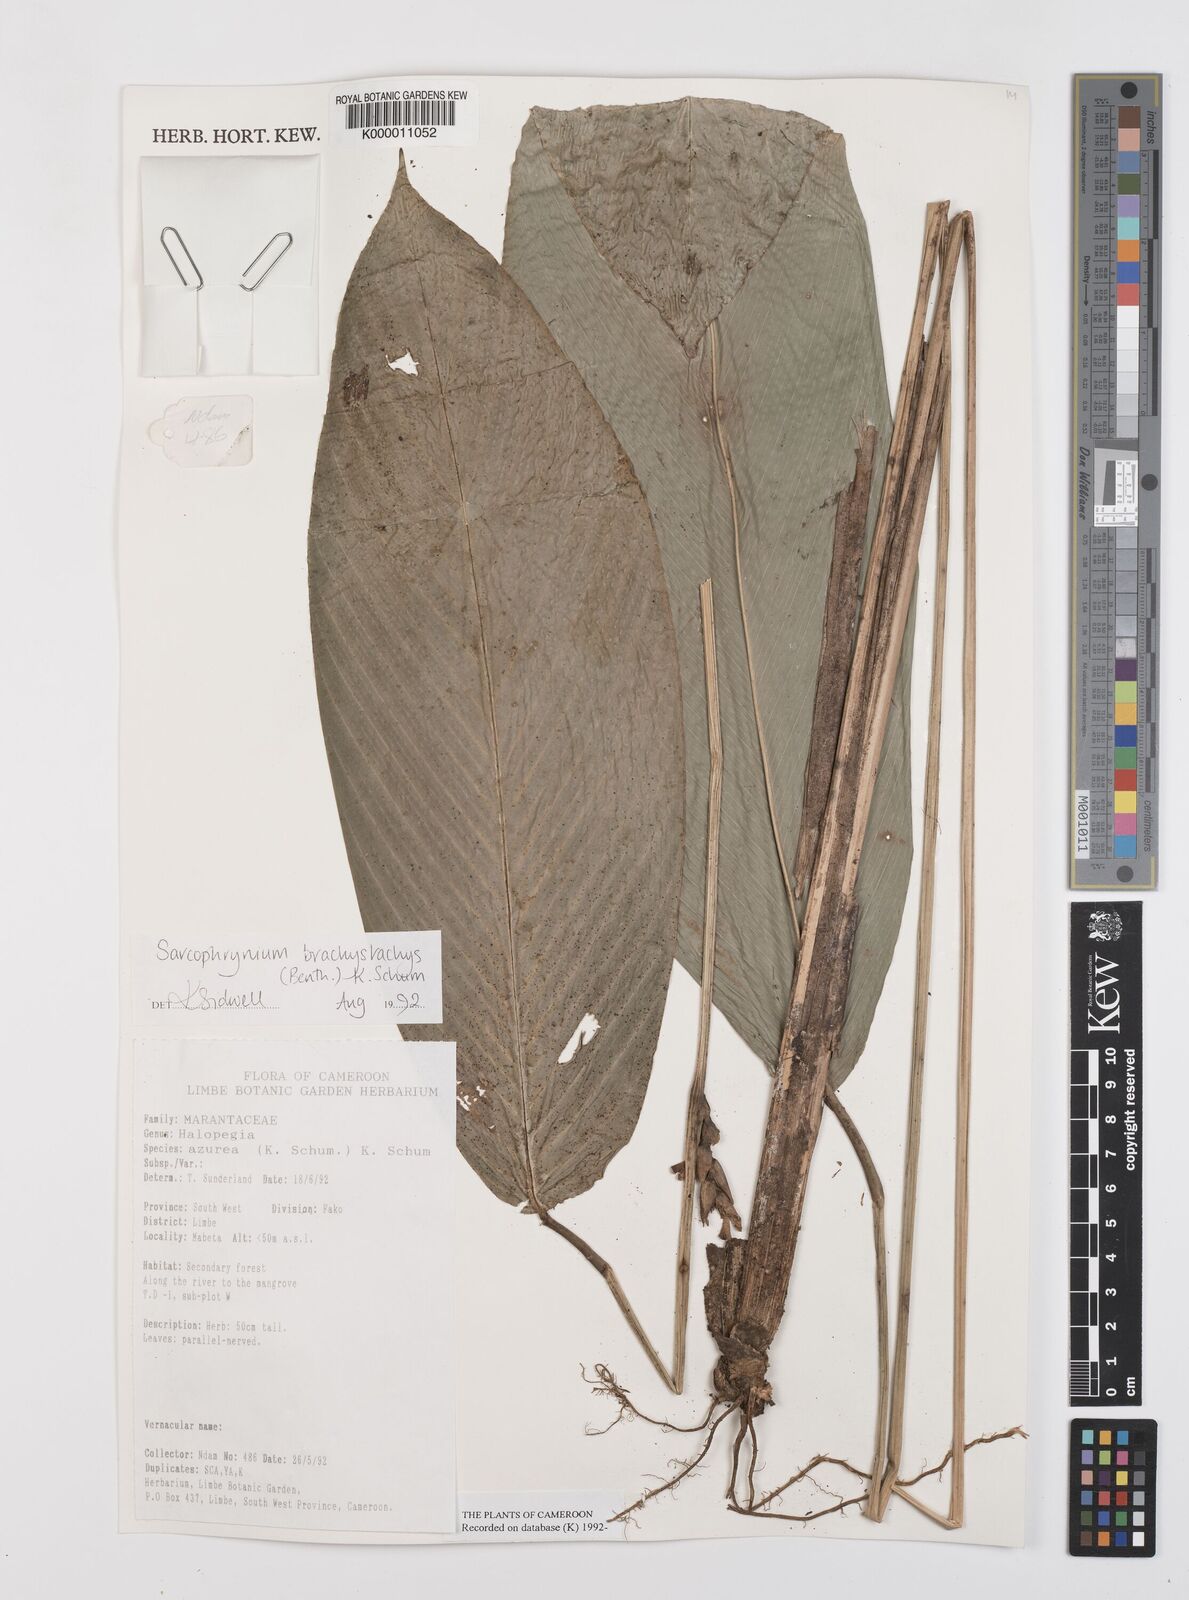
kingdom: Plantae
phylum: Tracheophyta
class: Liliopsida
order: Zingiberales
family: Marantaceae
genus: Sarcophrynium
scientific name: Sarcophrynium
